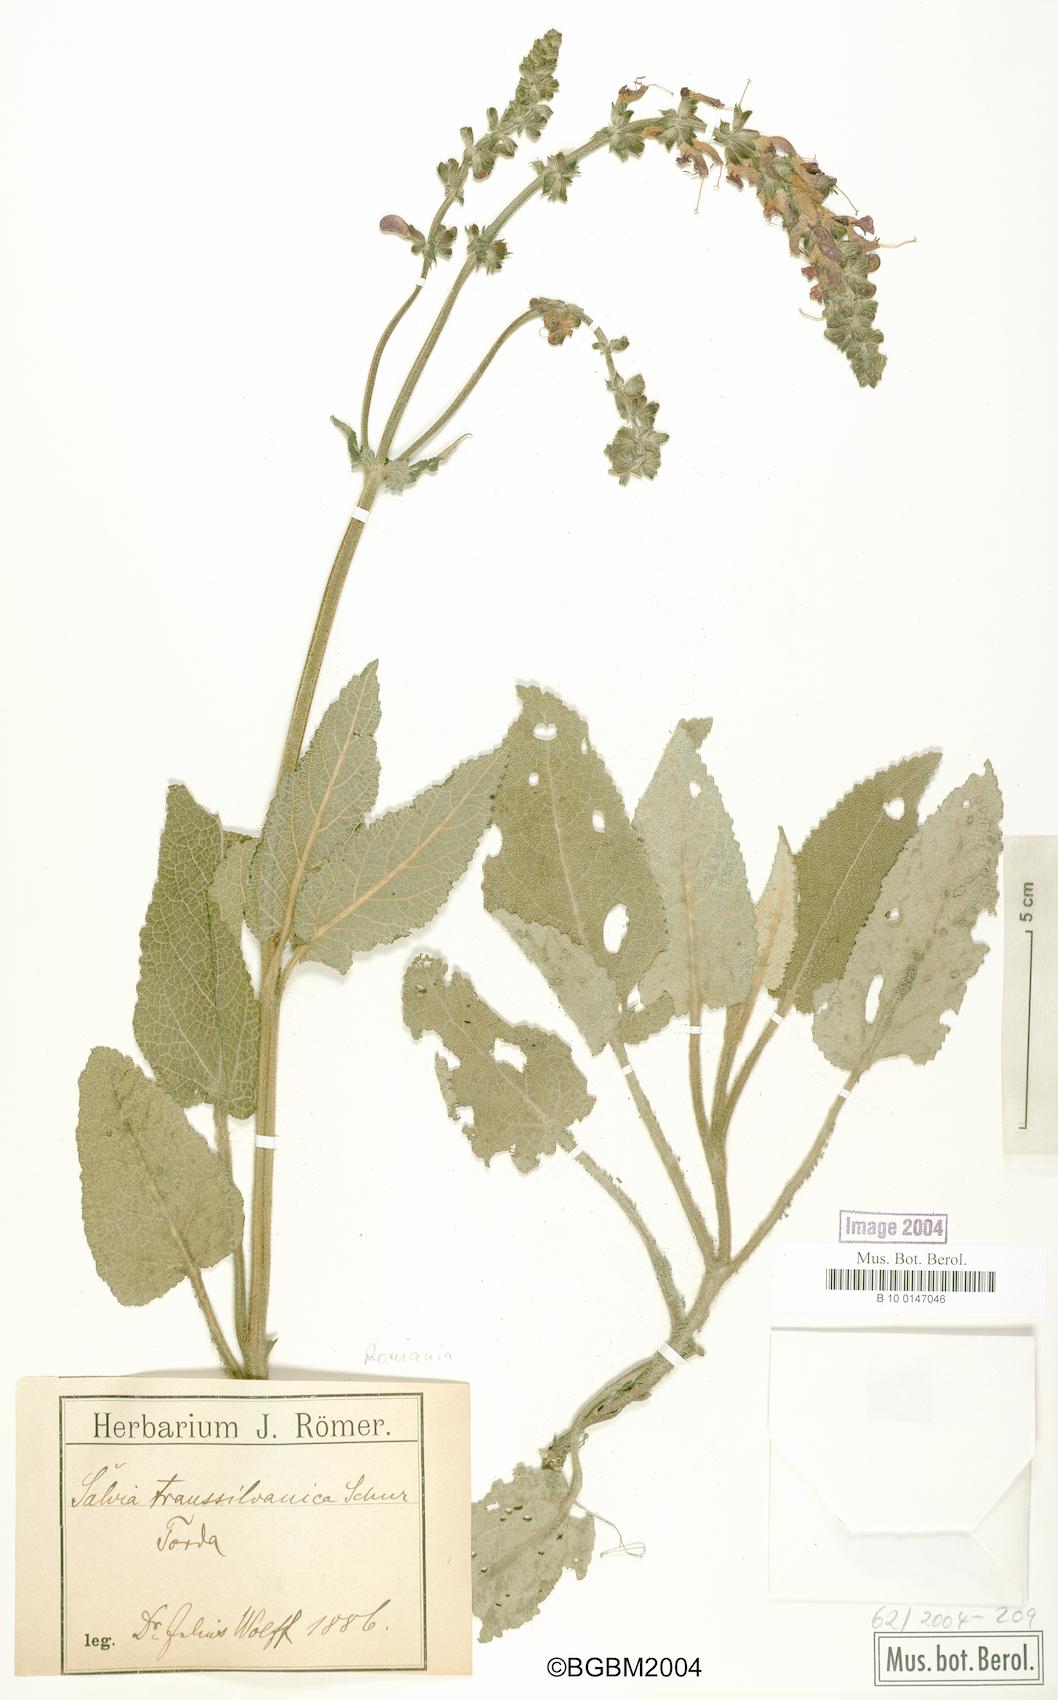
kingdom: Plantae
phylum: Tracheophyta
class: Magnoliopsida
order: Lamiales
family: Lamiaceae
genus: Salvia
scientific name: Salvia transsylvanica
